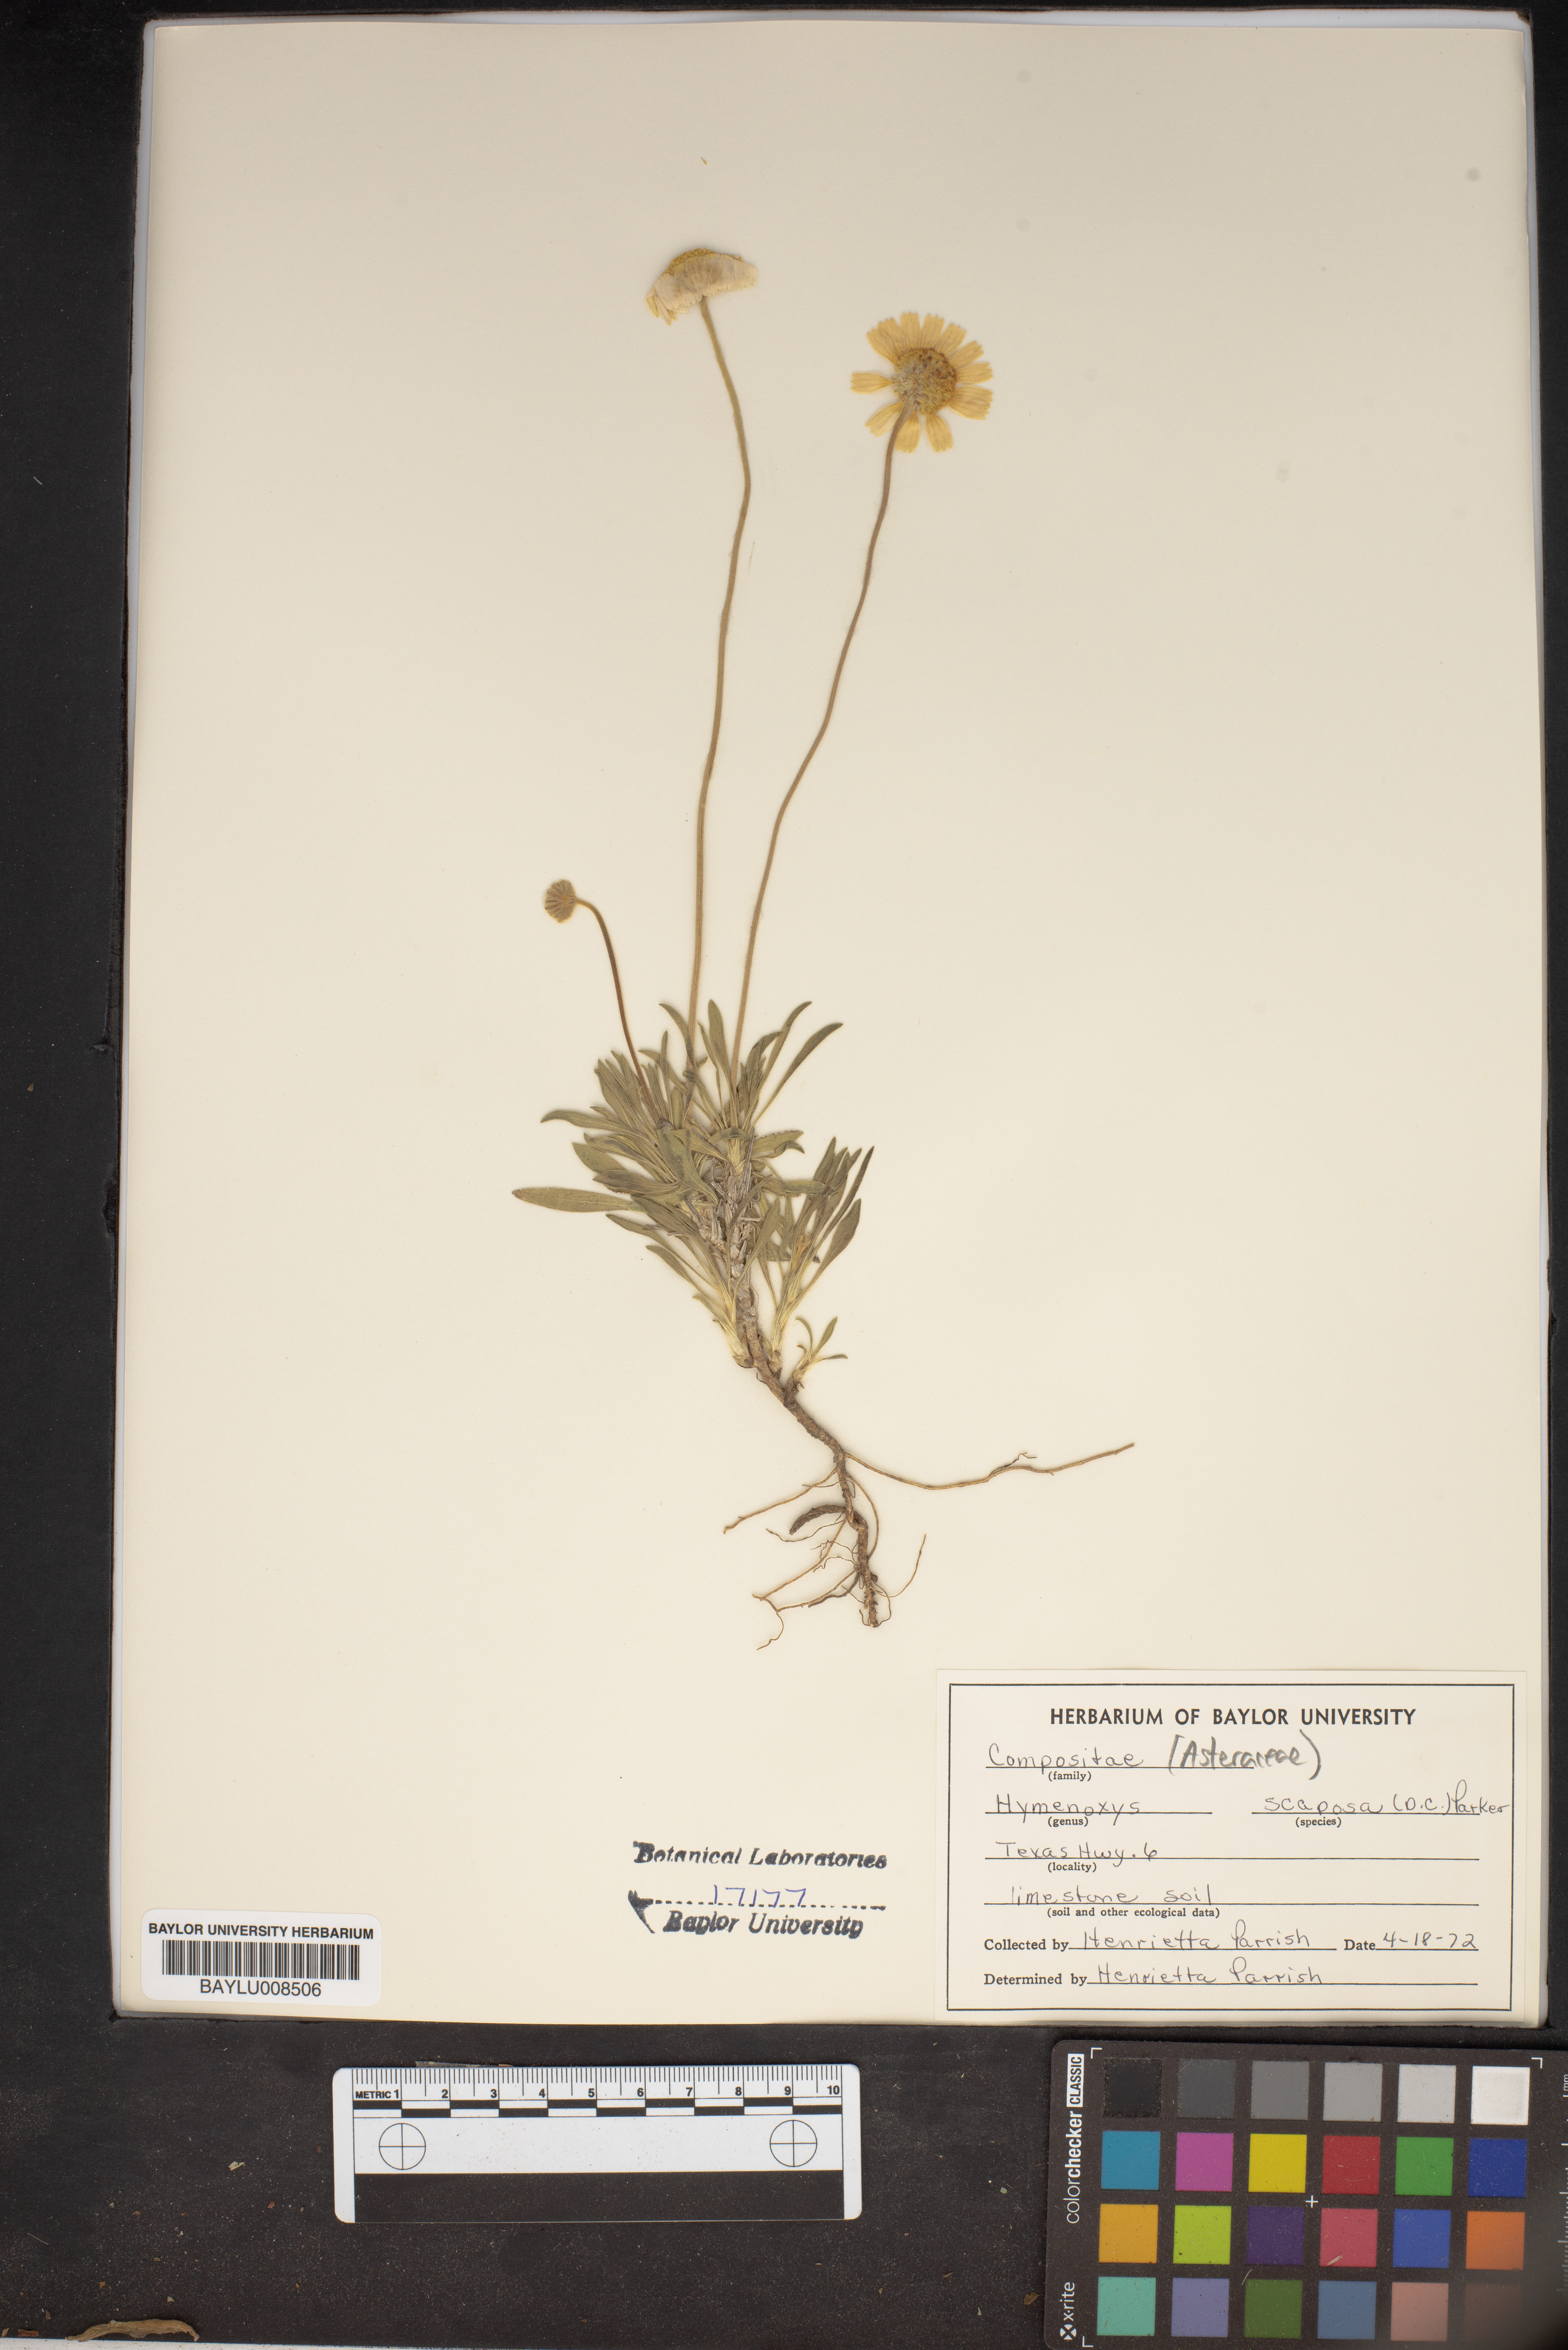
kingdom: Plantae
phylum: Tracheophyta
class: Magnoliopsida
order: Asterales
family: Asteraceae
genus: Tetraneuris
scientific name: Tetraneuris scaposa
